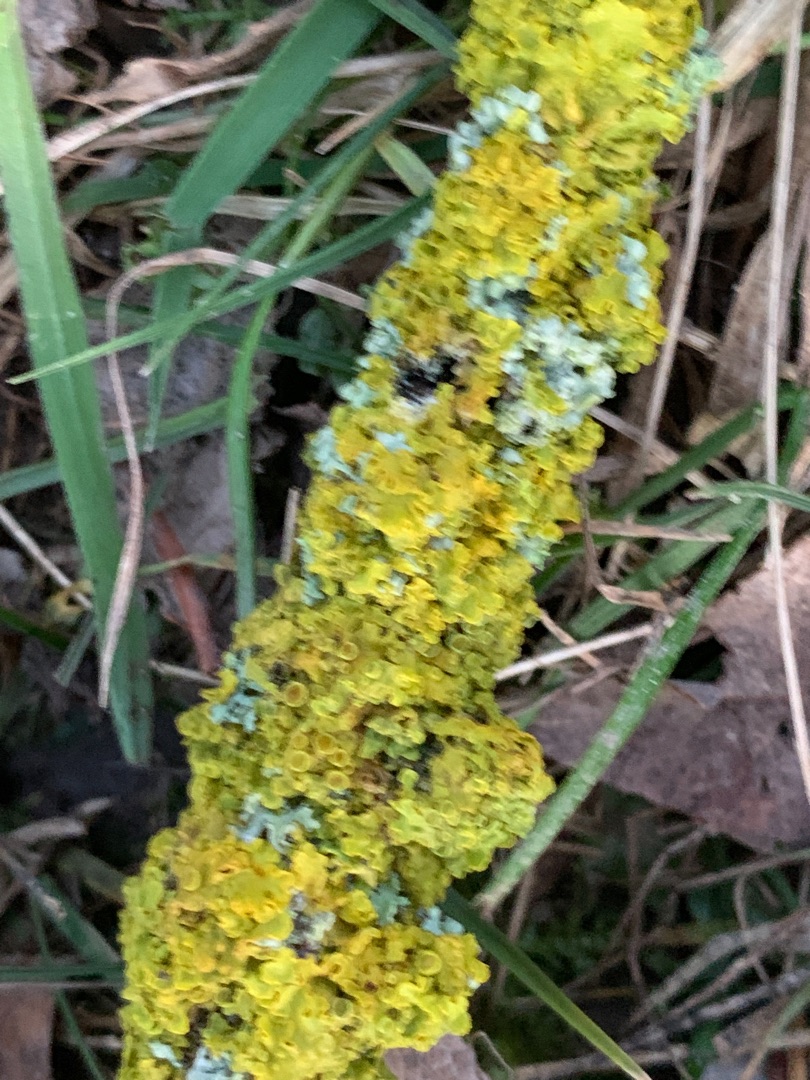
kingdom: Fungi
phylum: Ascomycota
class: Lecanoromycetes
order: Teloschistales
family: Teloschistaceae
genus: Xanthoria
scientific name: Xanthoria parietina
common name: Almindelig væggelav
